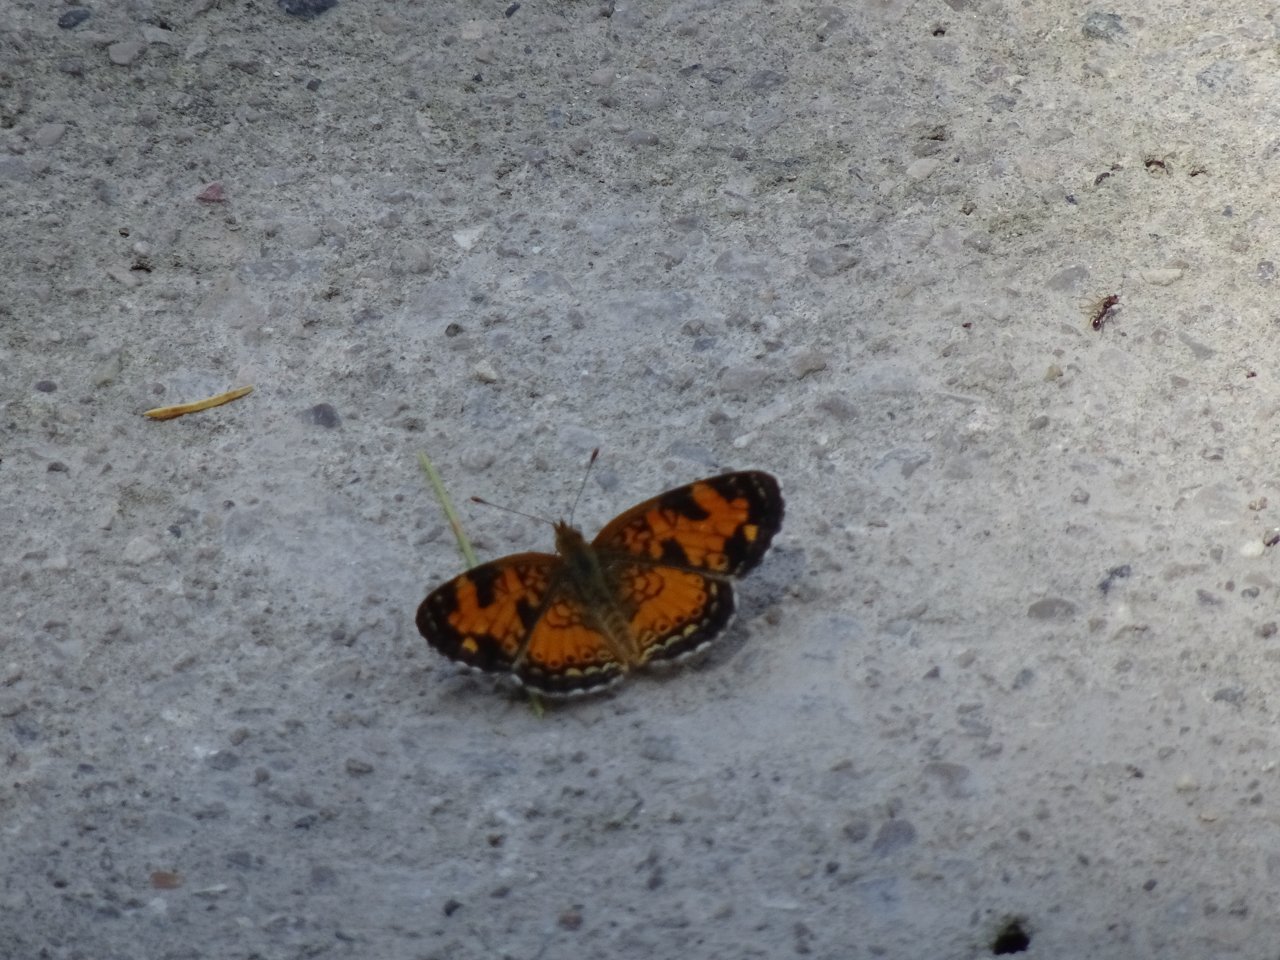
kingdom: Animalia
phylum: Arthropoda
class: Insecta
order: Lepidoptera
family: Nymphalidae
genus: Phyciodes
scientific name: Phyciodes tharos
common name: Northern Crescent
